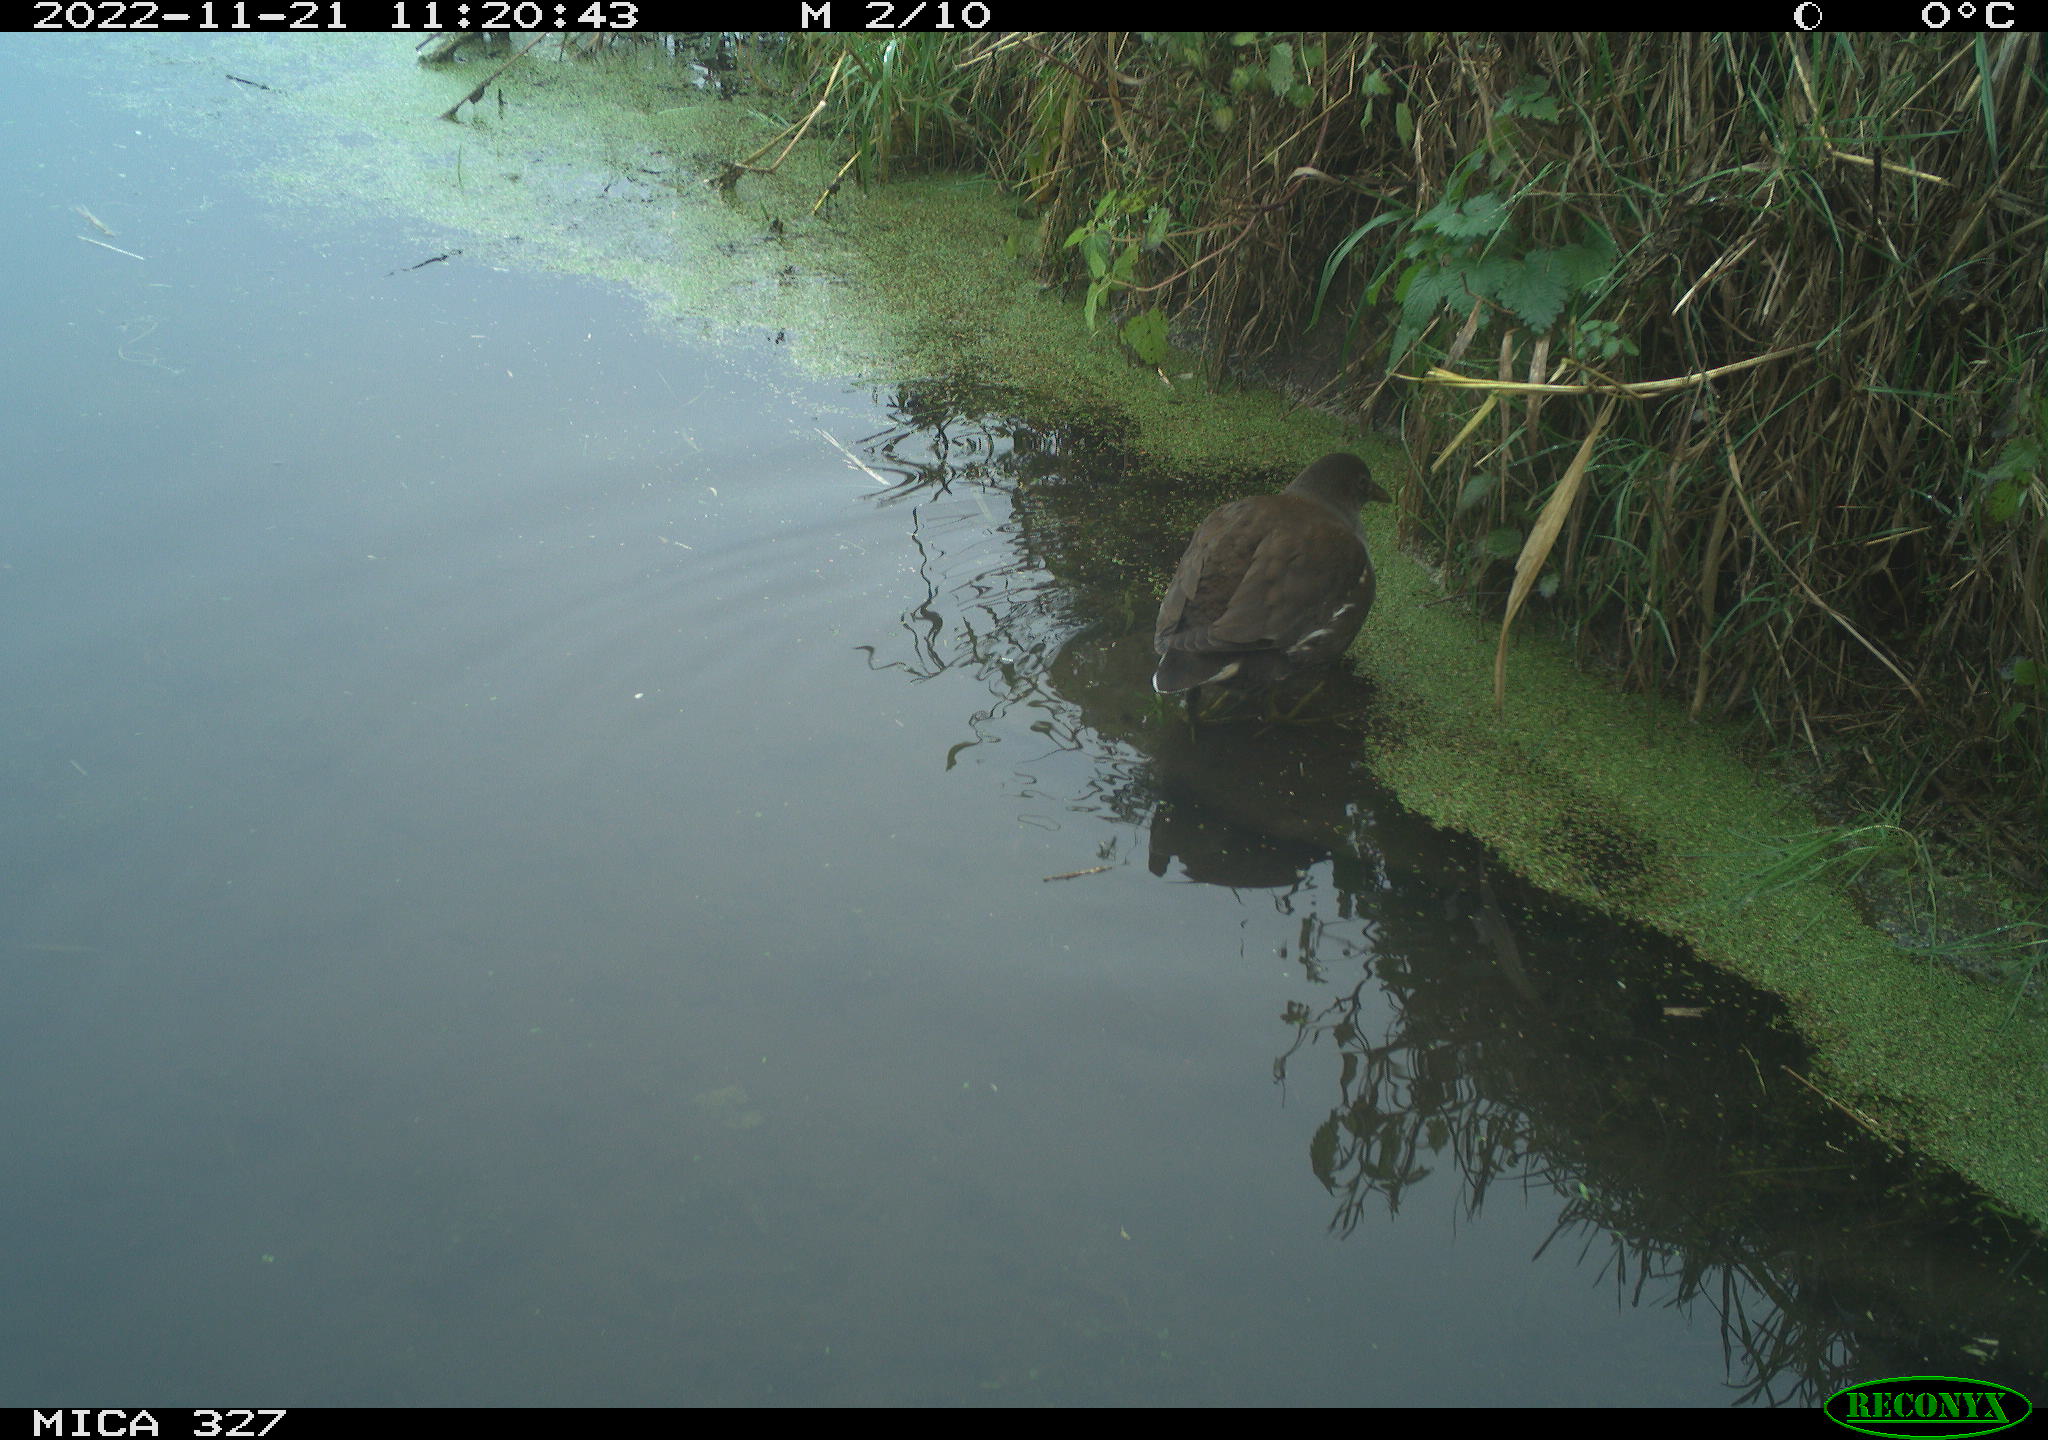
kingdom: Animalia
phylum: Chordata
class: Aves
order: Gruiformes
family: Rallidae
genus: Gallinula
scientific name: Gallinula chloropus
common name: Common moorhen
